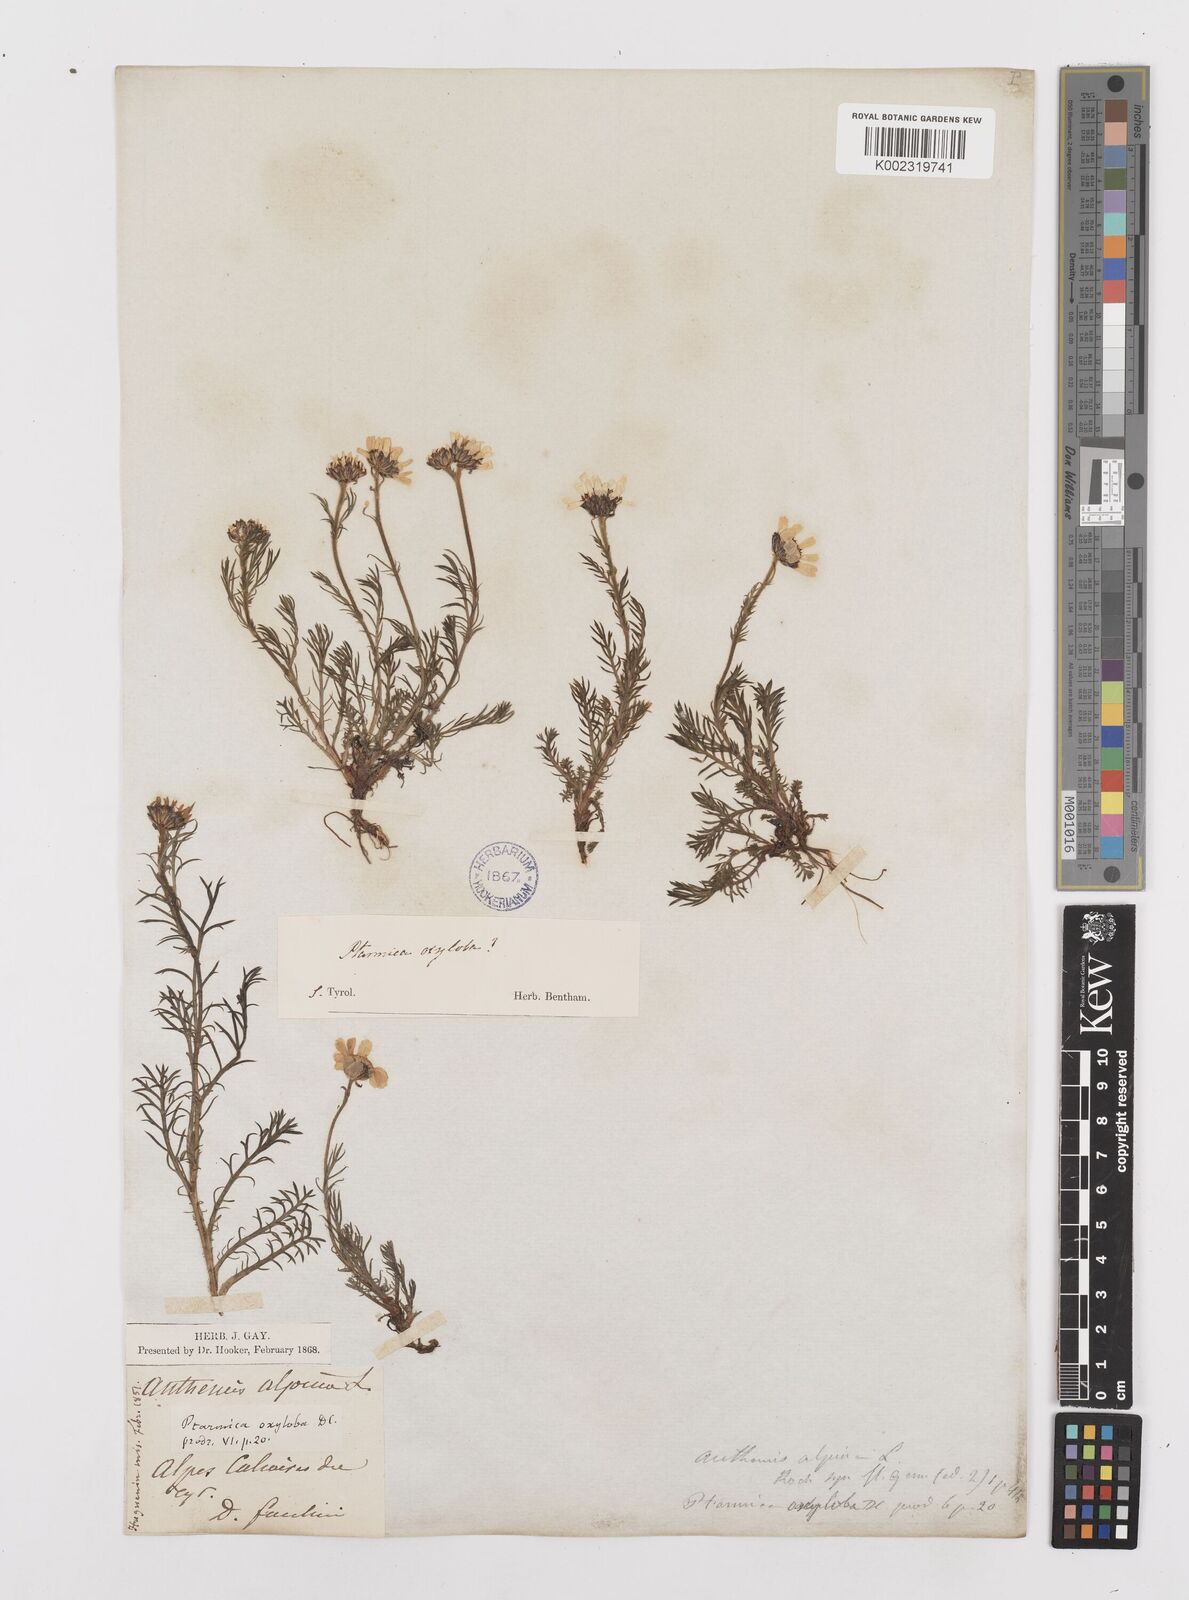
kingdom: Plantae
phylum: Tracheophyta
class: Magnoliopsida
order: Asterales
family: Asteraceae
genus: Achillea
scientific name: Achillea oxyloba
